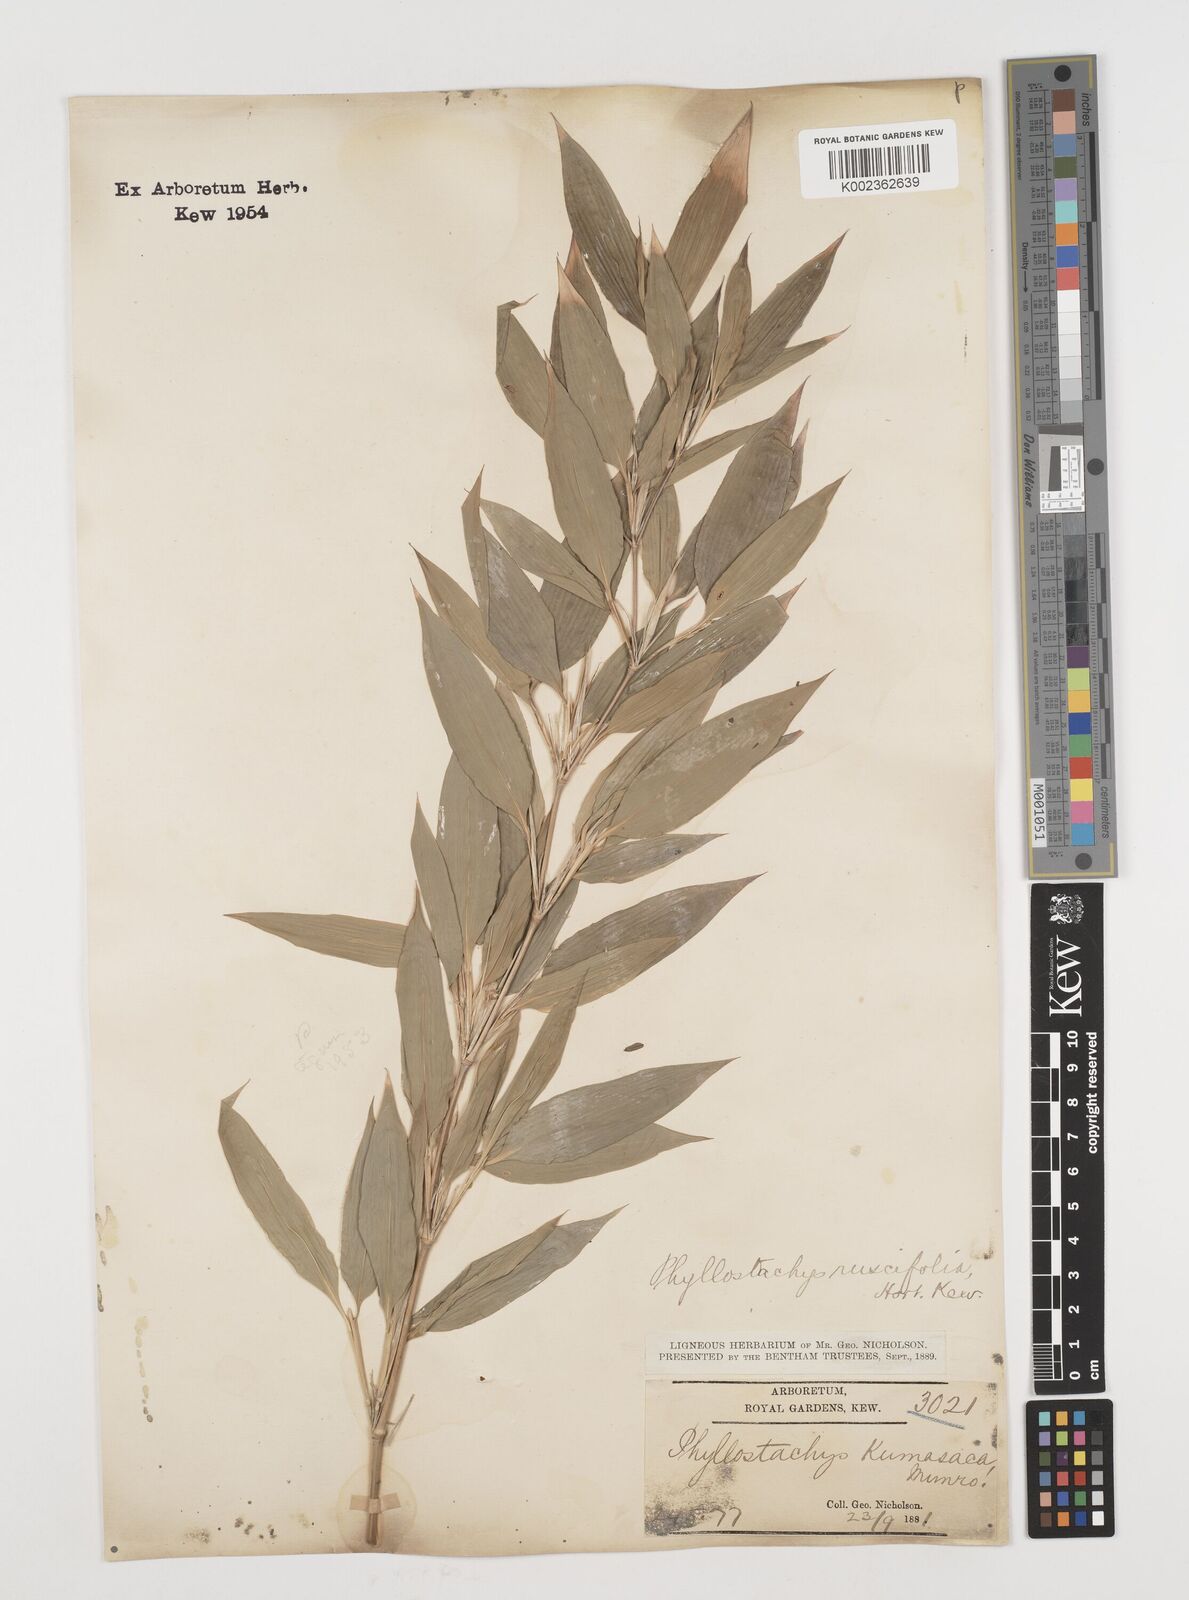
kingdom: Plantae
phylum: Tracheophyta
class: Liliopsida
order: Poales
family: Poaceae
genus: Shibataea
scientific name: Shibataea kumasasa
